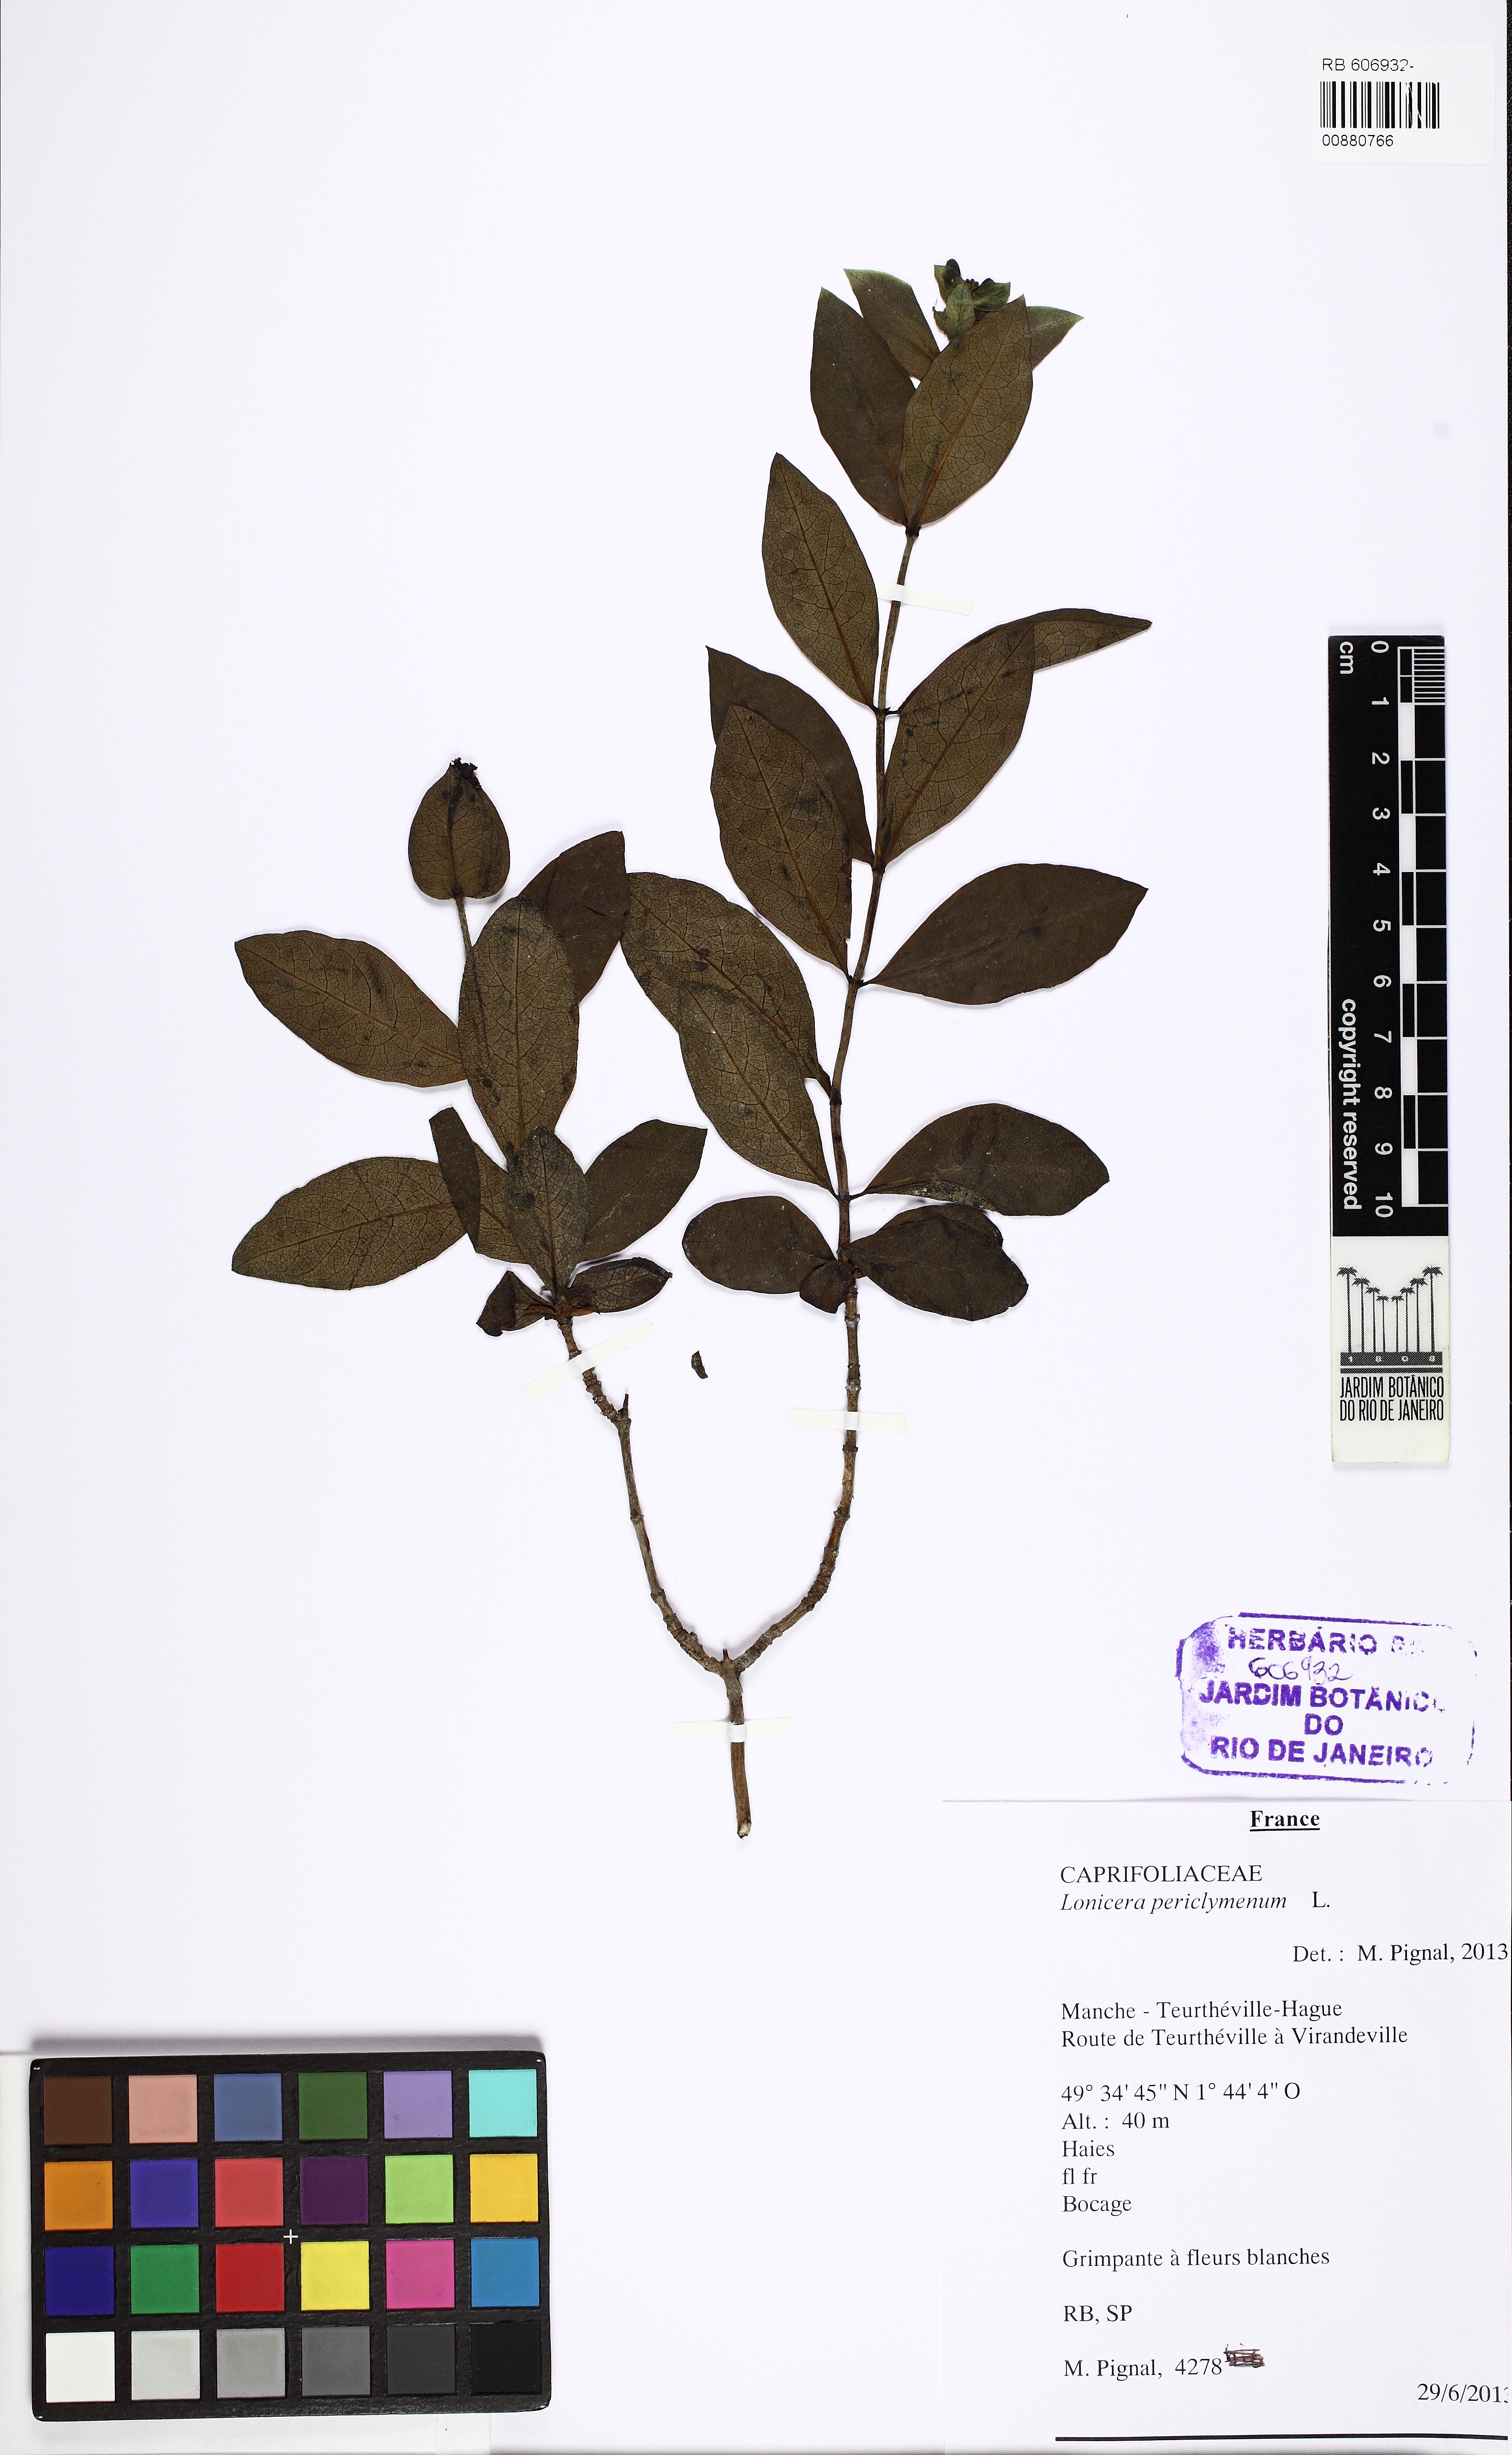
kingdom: Plantae
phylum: Tracheophyta
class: Magnoliopsida
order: Dipsacales
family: Caprifoliaceae
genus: Lonicera
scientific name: Lonicera periclymenum
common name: European honeysuckle
